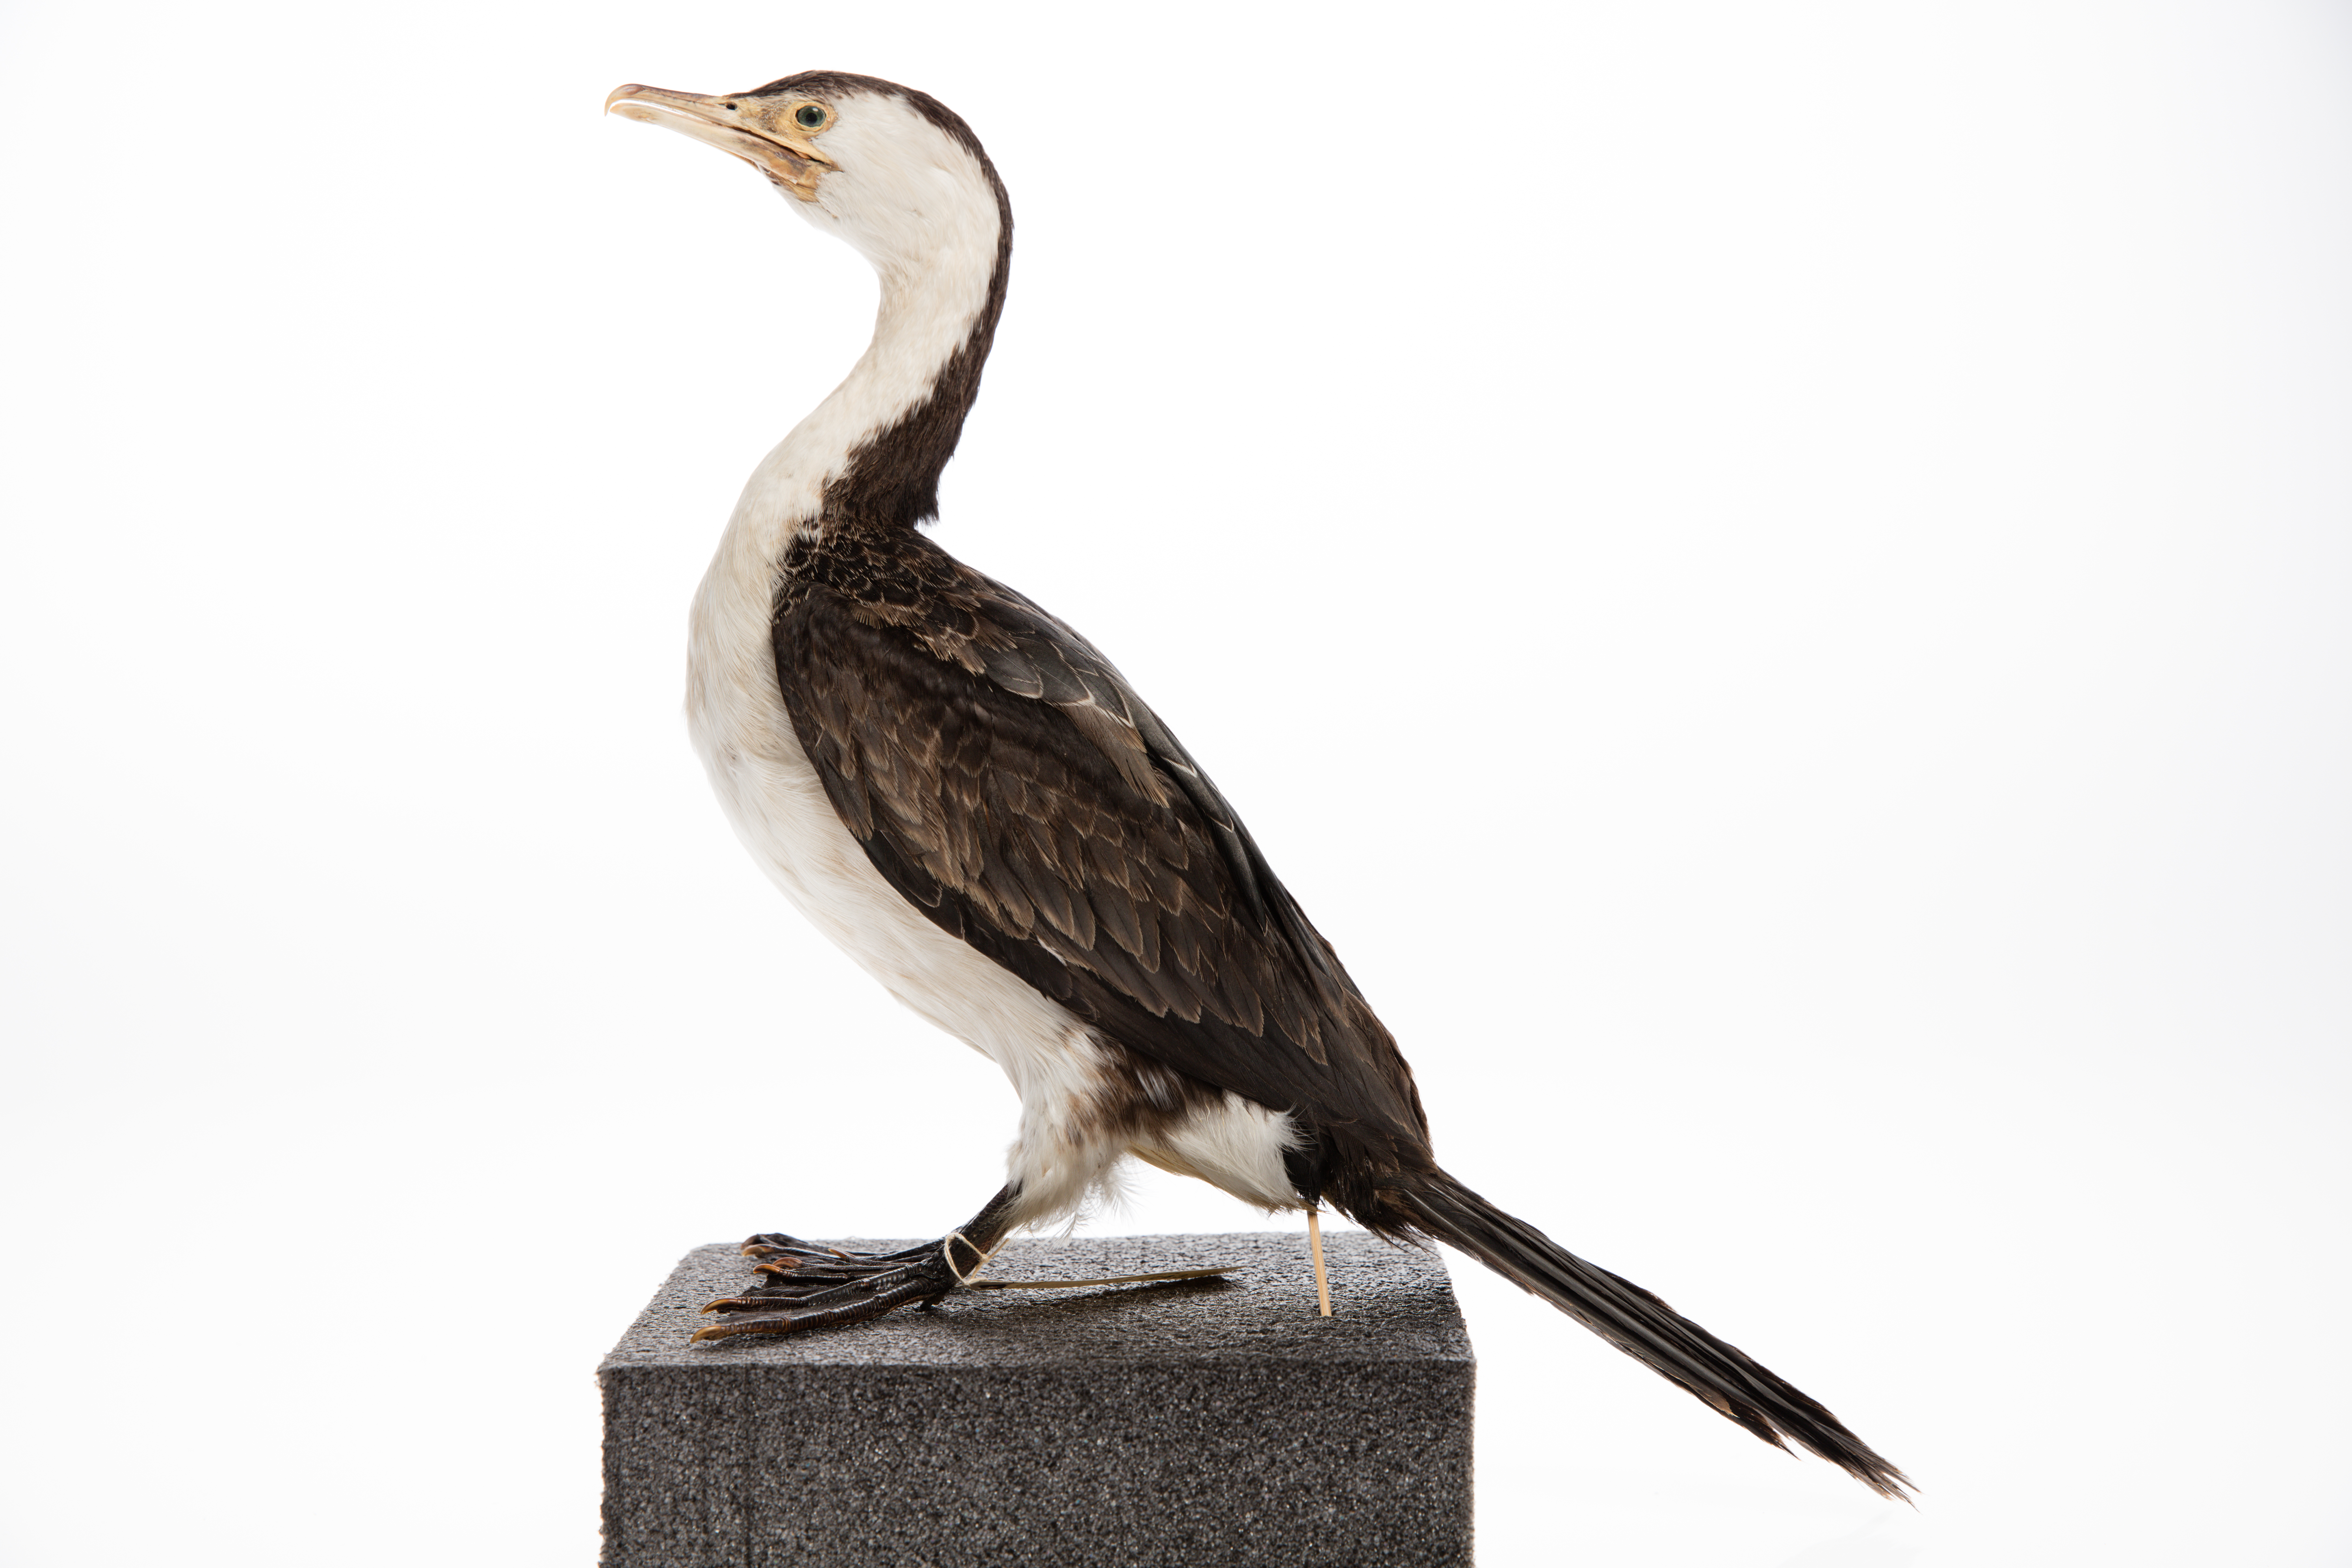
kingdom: Animalia
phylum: Chordata
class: Aves
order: Suliformes
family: Phalacrocoracidae
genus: Microcarbo
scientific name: Microcarbo melanoleucos
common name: Little pied cormorant
